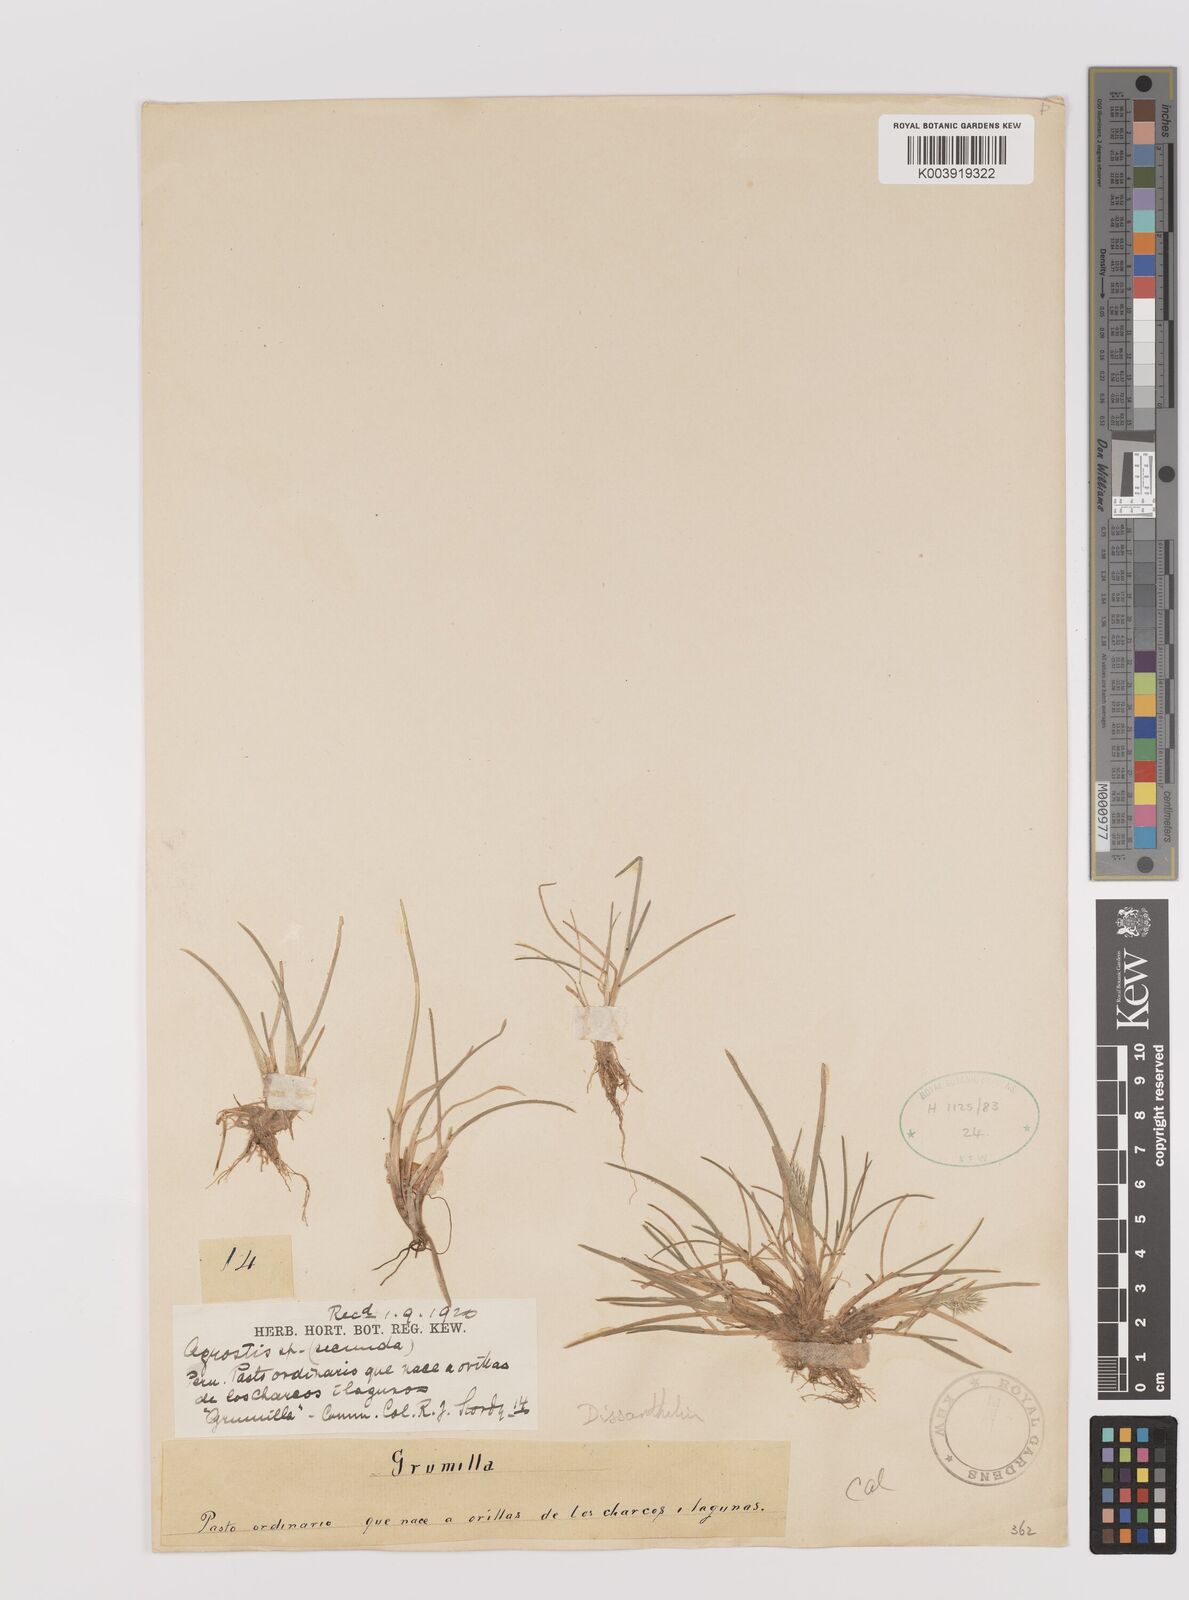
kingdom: Plantae
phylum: Tracheophyta
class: Liliopsida
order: Poales
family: Poaceae
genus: Poa
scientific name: Poa
